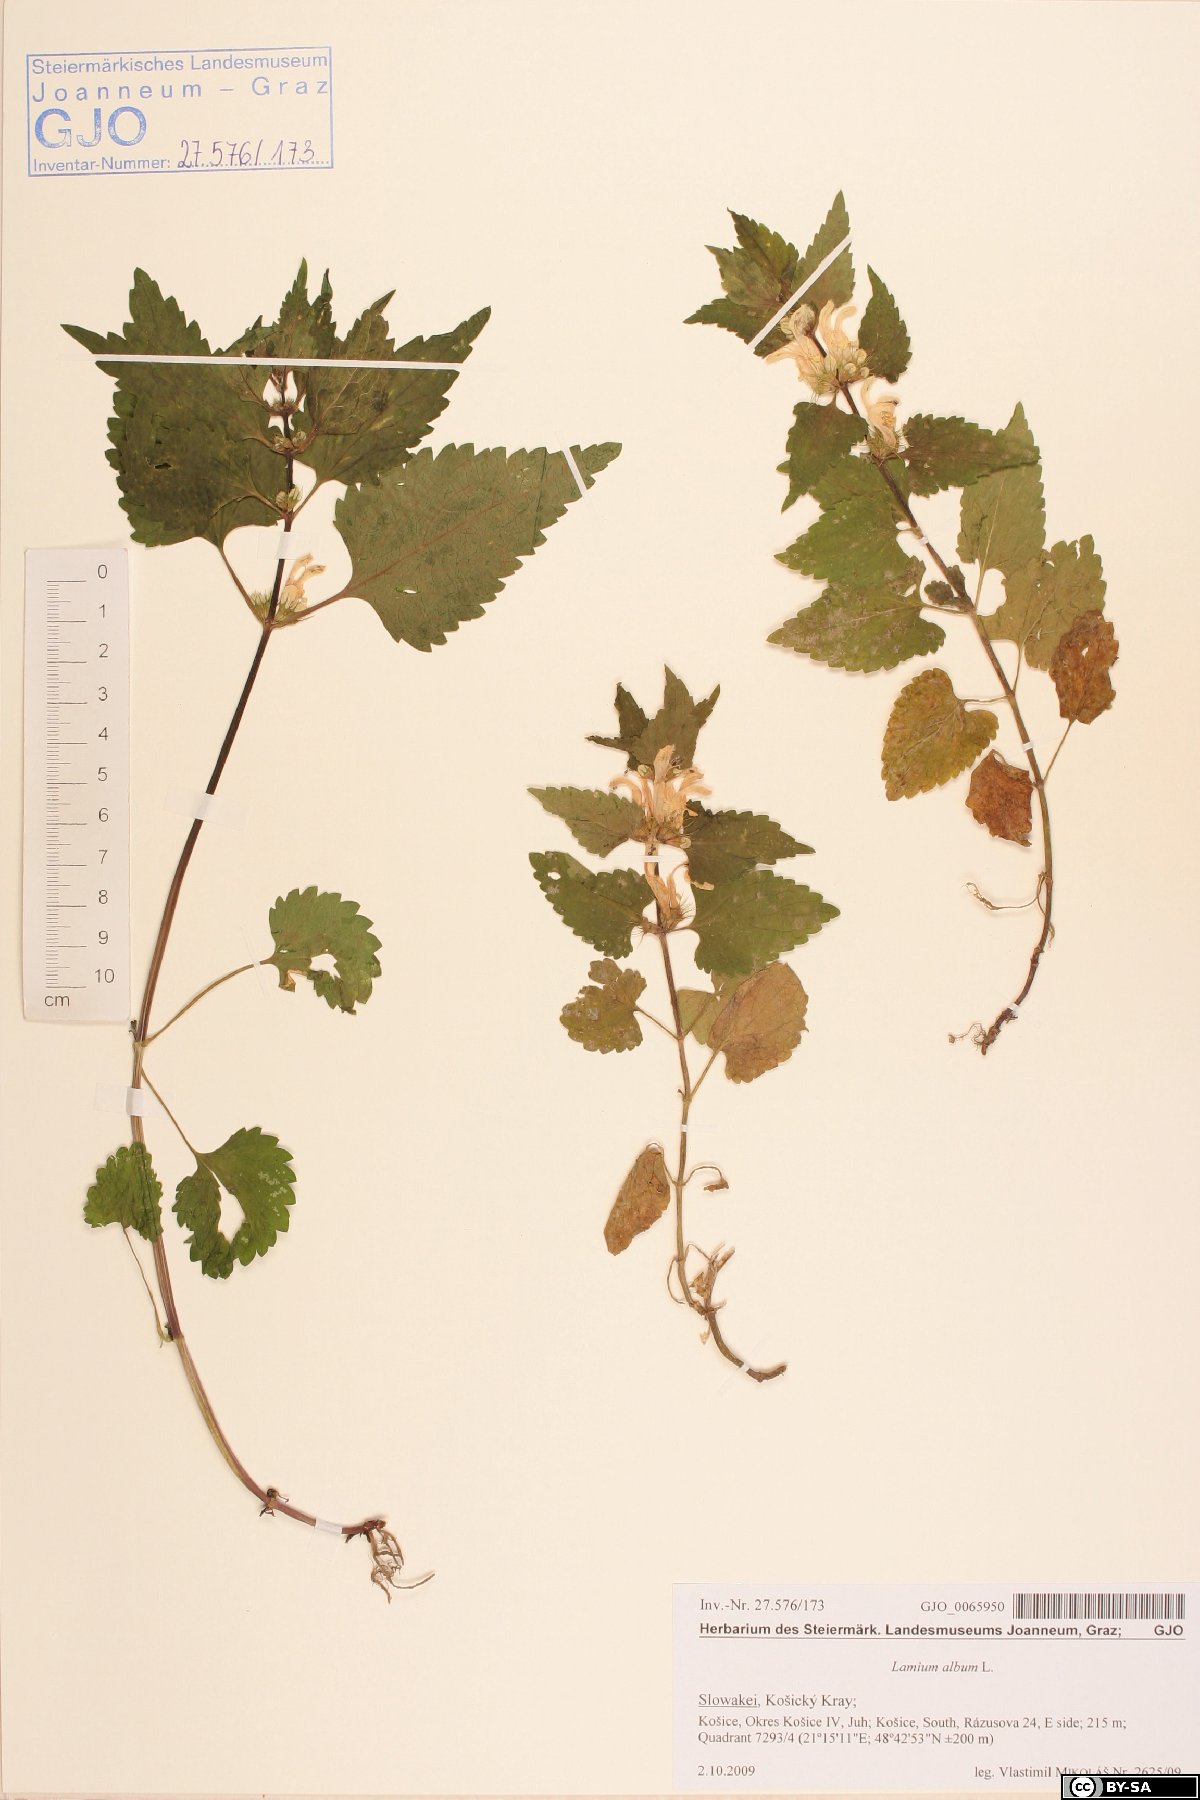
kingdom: Plantae
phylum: Tracheophyta
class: Magnoliopsida
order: Lamiales
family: Lamiaceae
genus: Lamium
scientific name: Lamium album
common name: White dead-nettle
